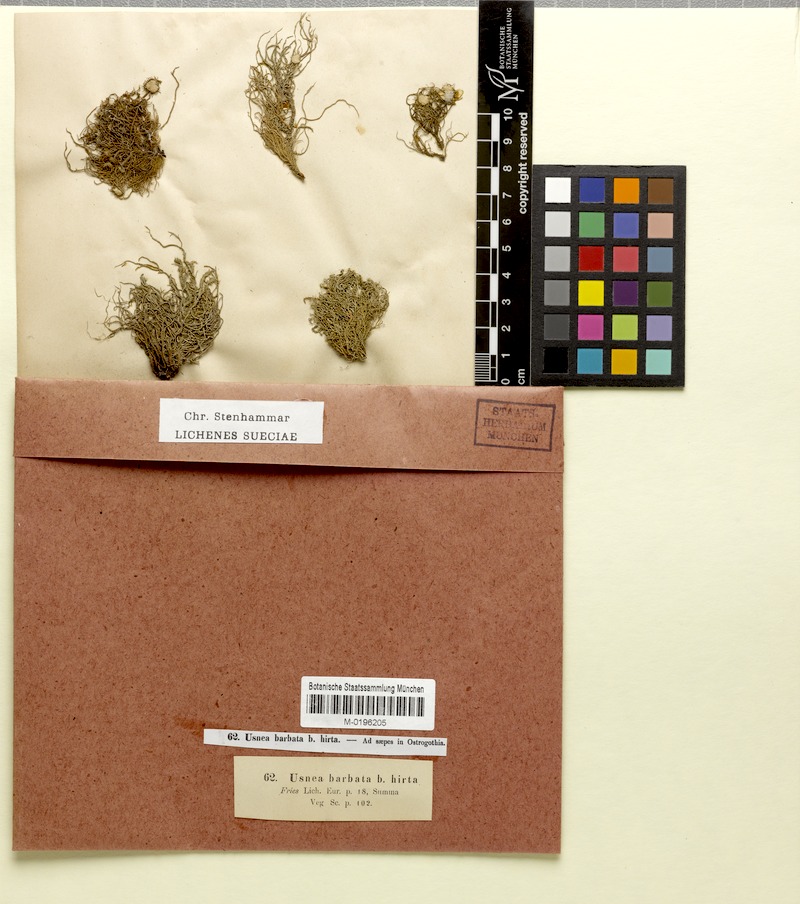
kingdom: Fungi
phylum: Ascomycota
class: Lecanoromycetes
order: Lecanorales
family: Parmeliaceae
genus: Usnea
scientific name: Usnea hirta
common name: Bristly beard lichen
